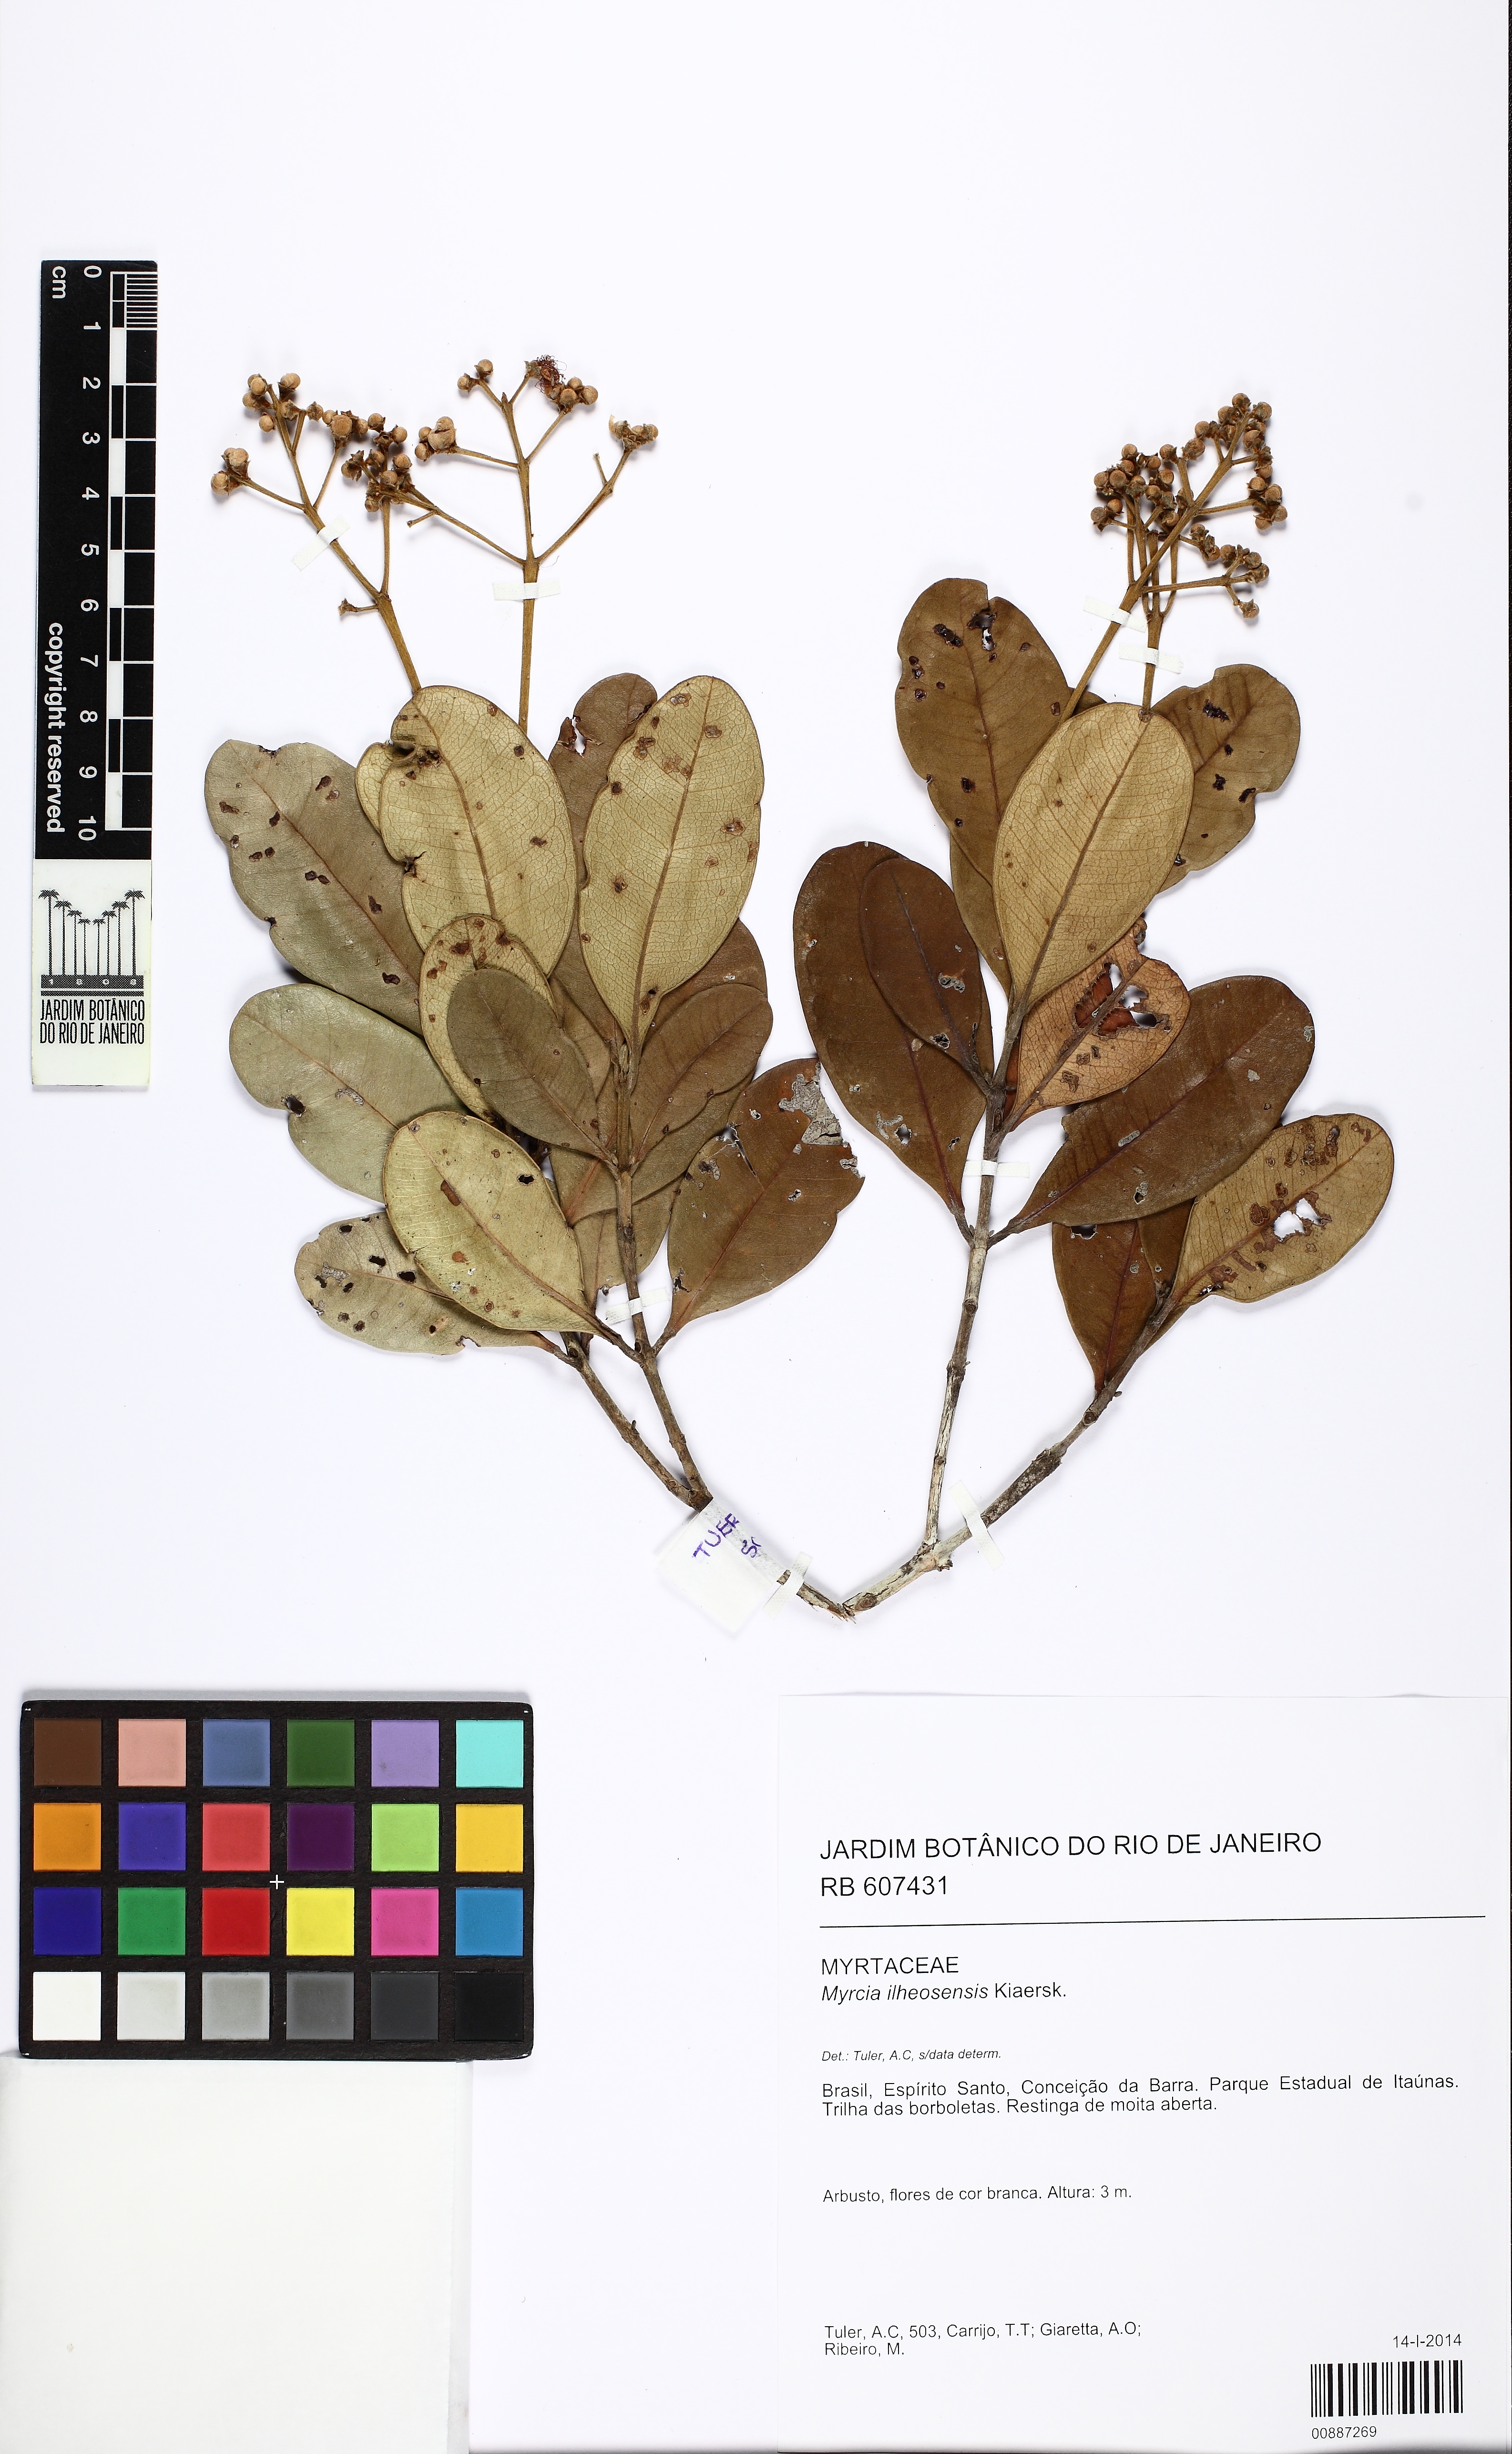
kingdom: Plantae
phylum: Tracheophyta
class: Magnoliopsida
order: Myrtales
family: Myrtaceae
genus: Myrcia
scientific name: Myrcia ilheosensis
